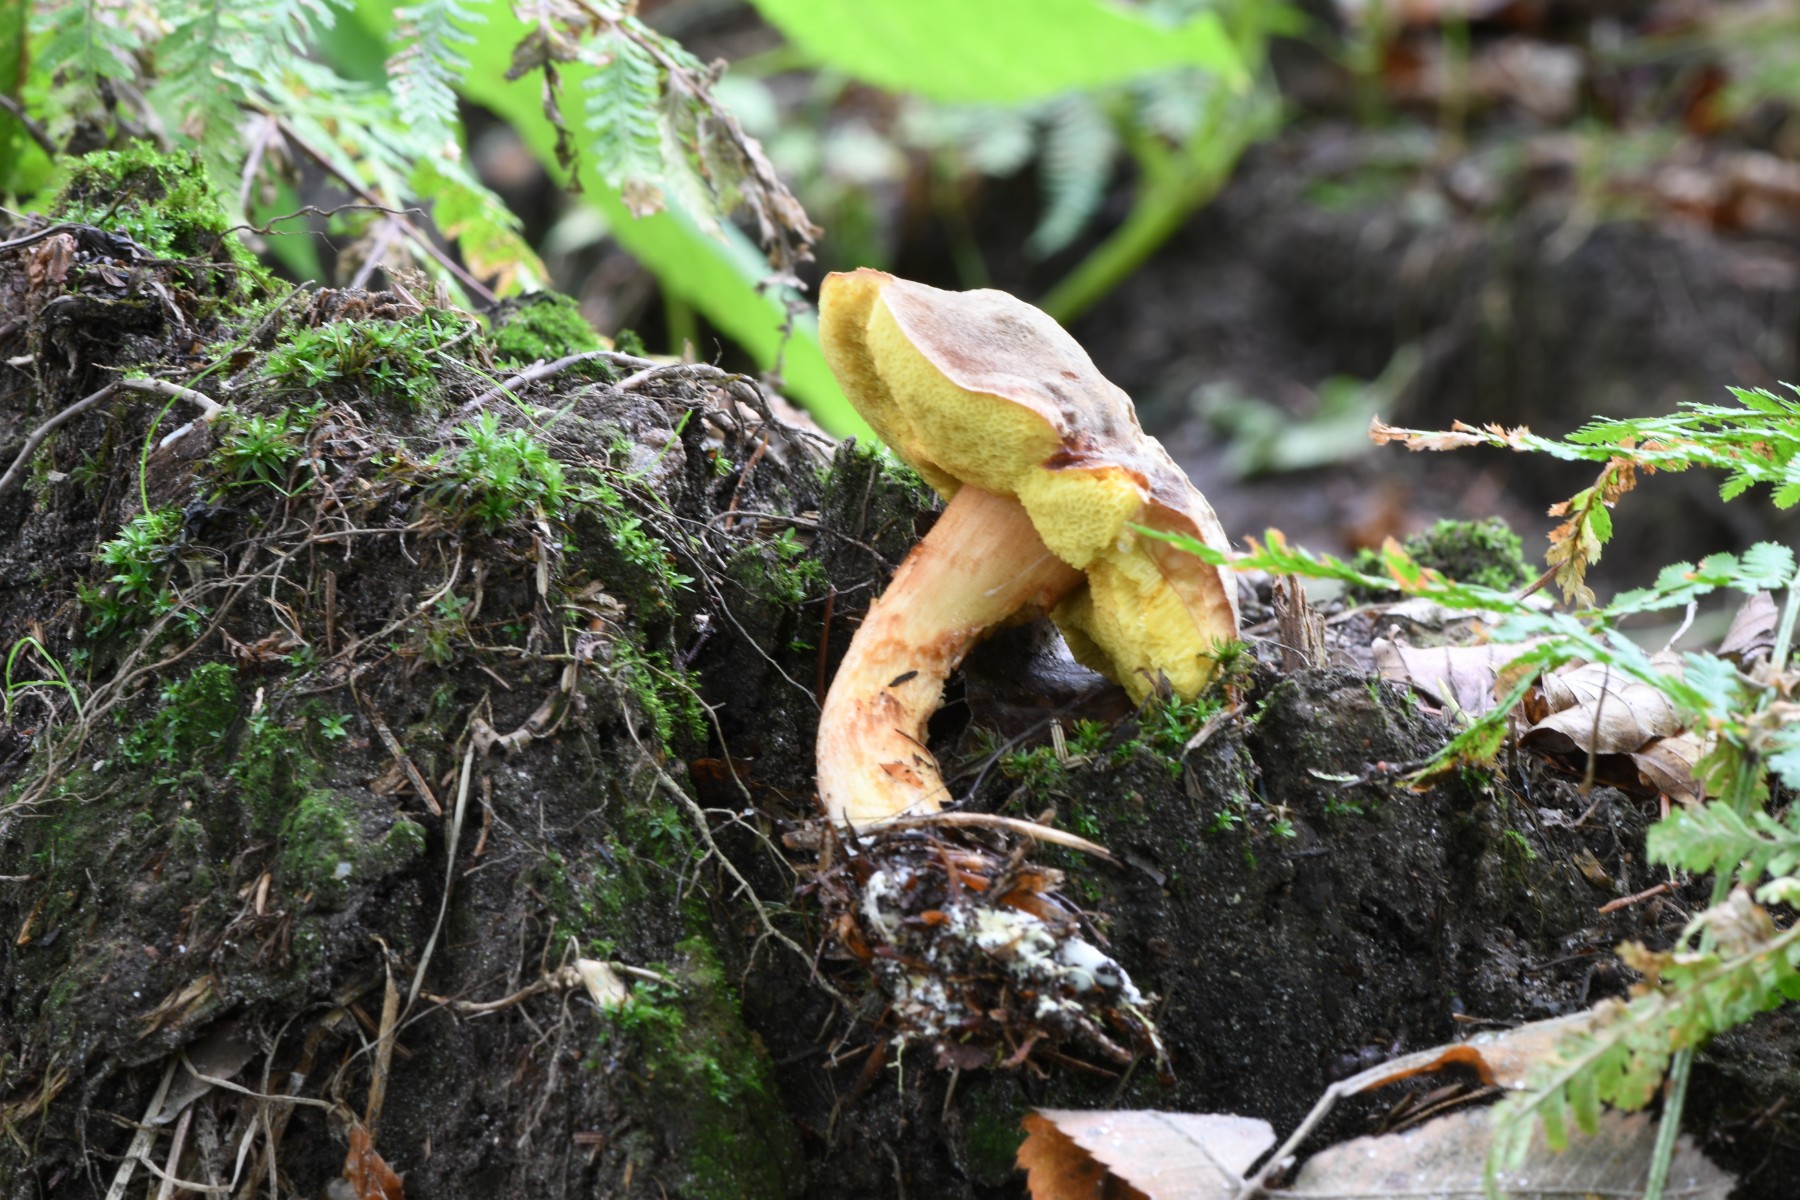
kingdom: Fungi
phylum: Basidiomycota
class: Agaricomycetes
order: Boletales
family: Boletaceae
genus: Xerocomus
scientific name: Xerocomus ferrugineus
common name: vaskeskinds-rørhat
